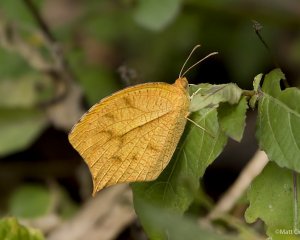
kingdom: Animalia
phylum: Arthropoda
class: Insecta
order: Lepidoptera
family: Pieridae
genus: Pyrisitia
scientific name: Pyrisitia proterpia
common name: Tailed Orange
